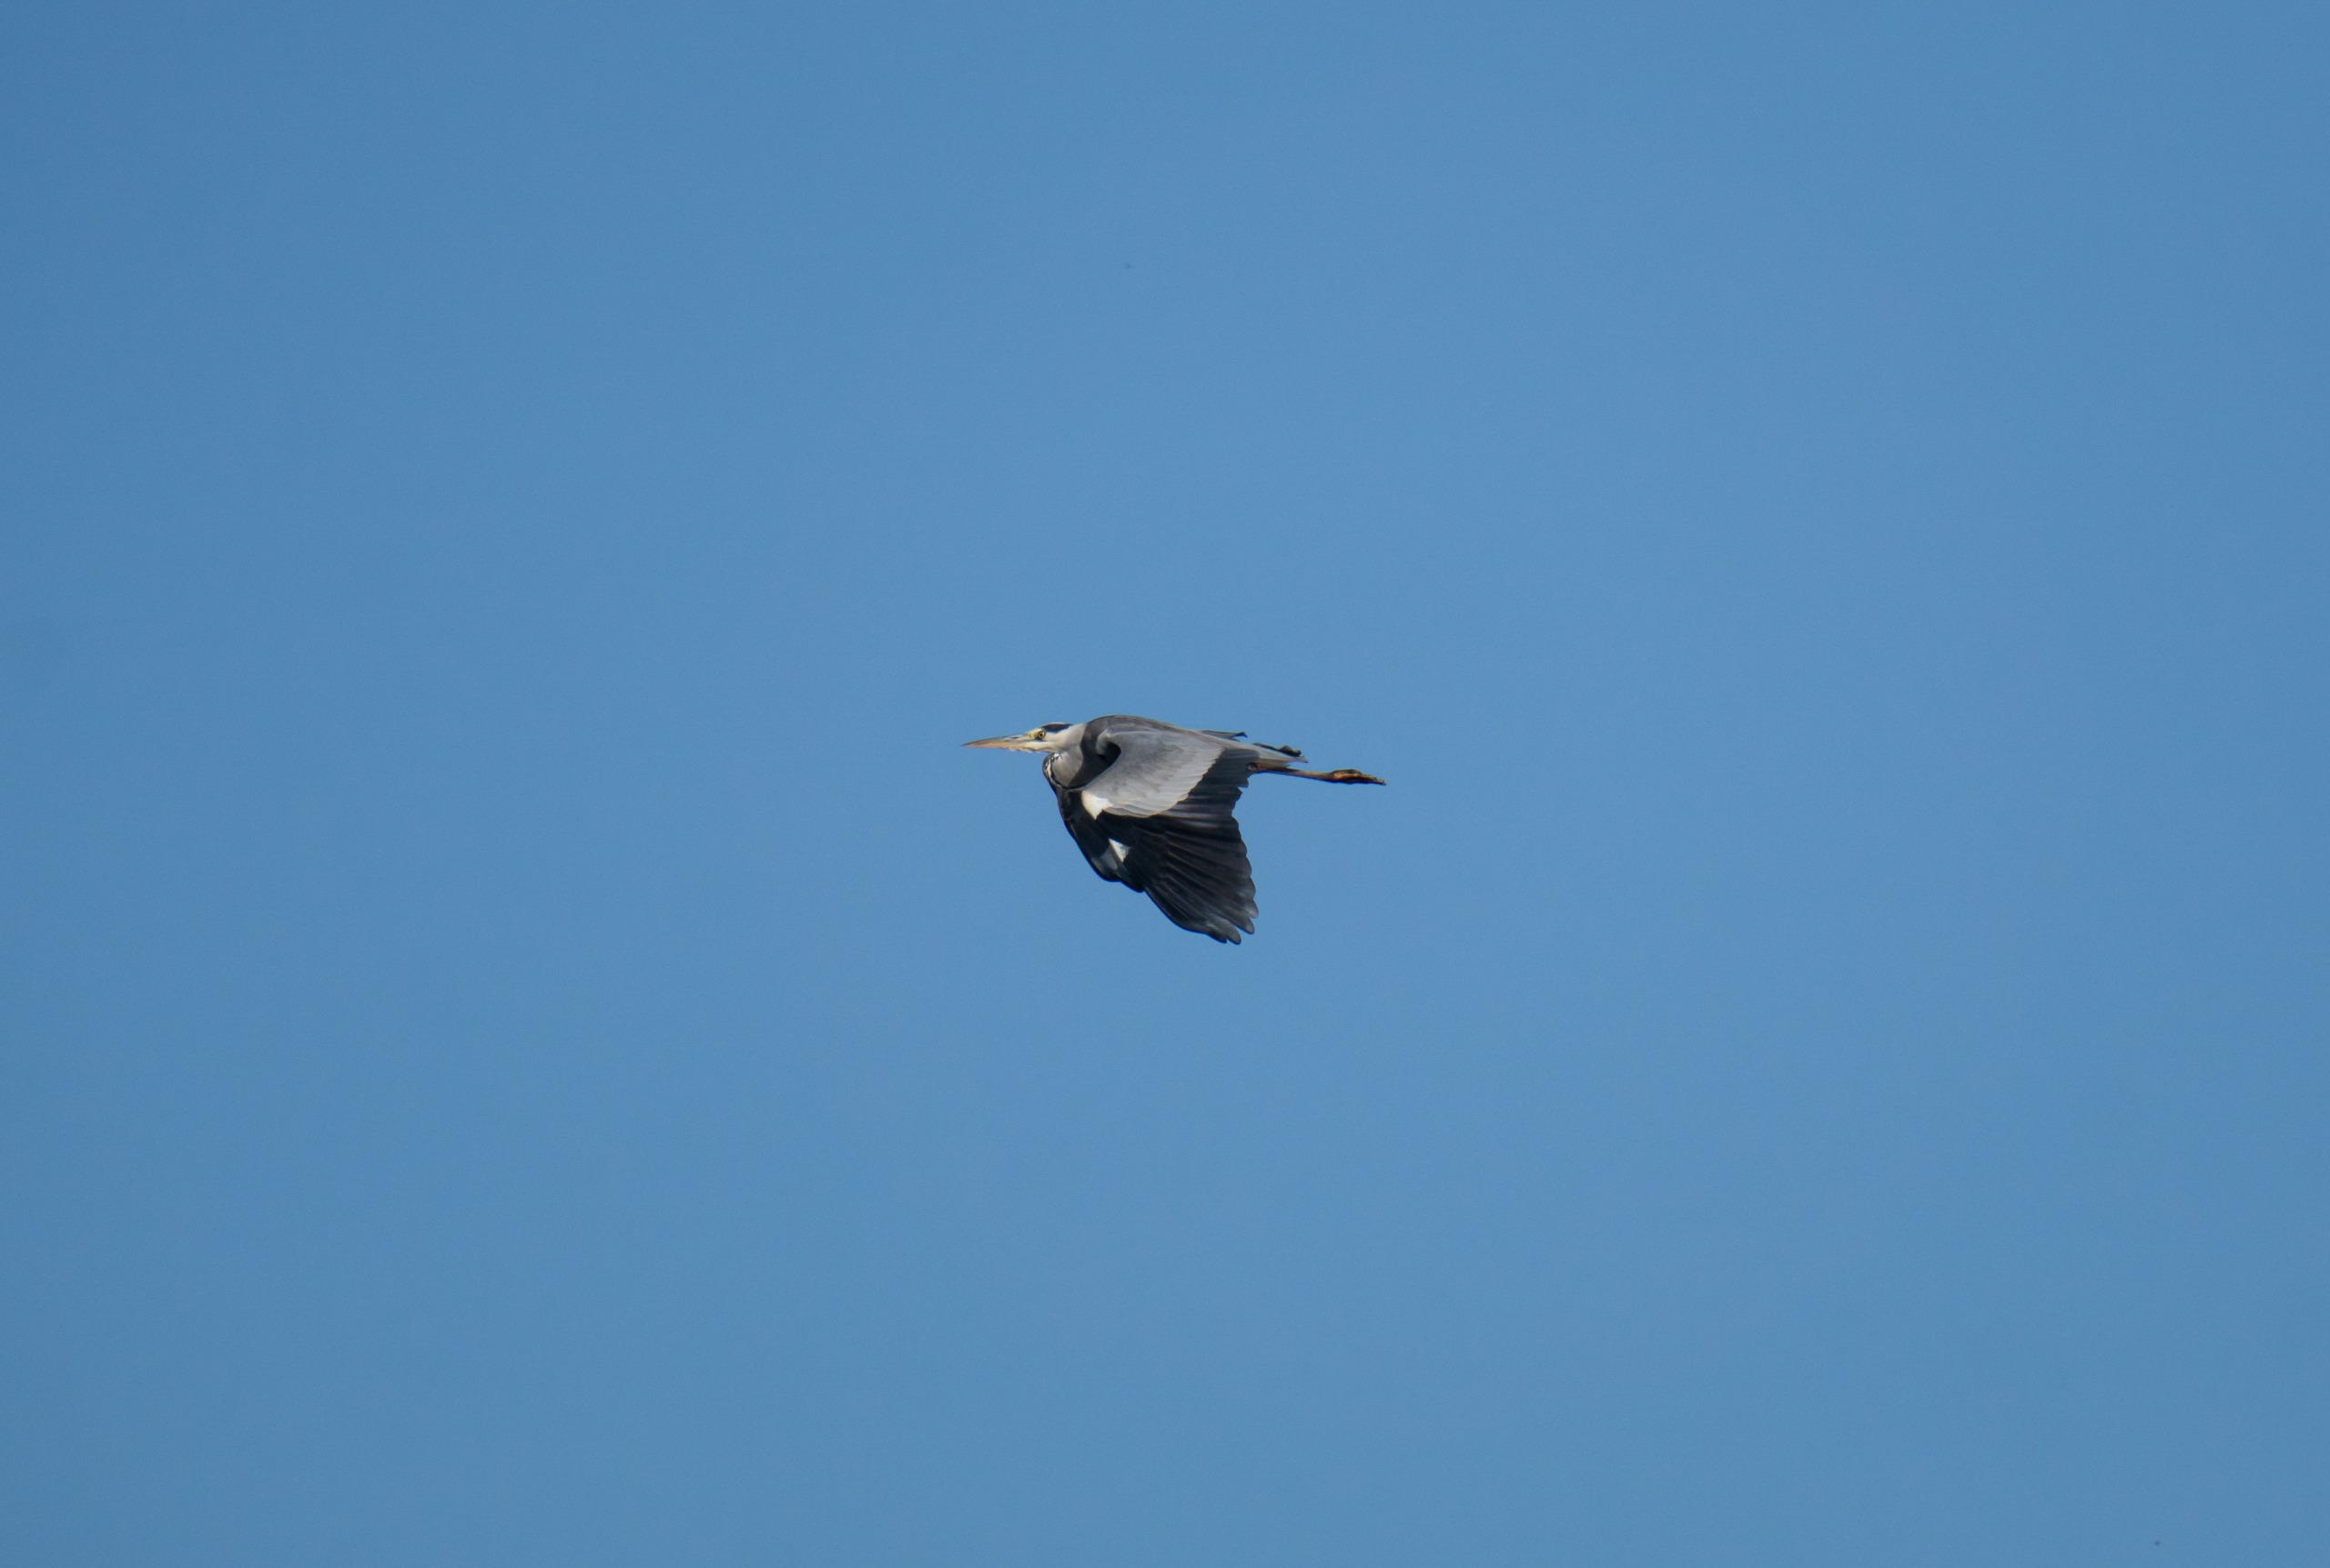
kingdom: Animalia
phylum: Chordata
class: Aves
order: Pelecaniformes
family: Ardeidae
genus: Ardea
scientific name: Ardea cinerea
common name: Fiskehejre
